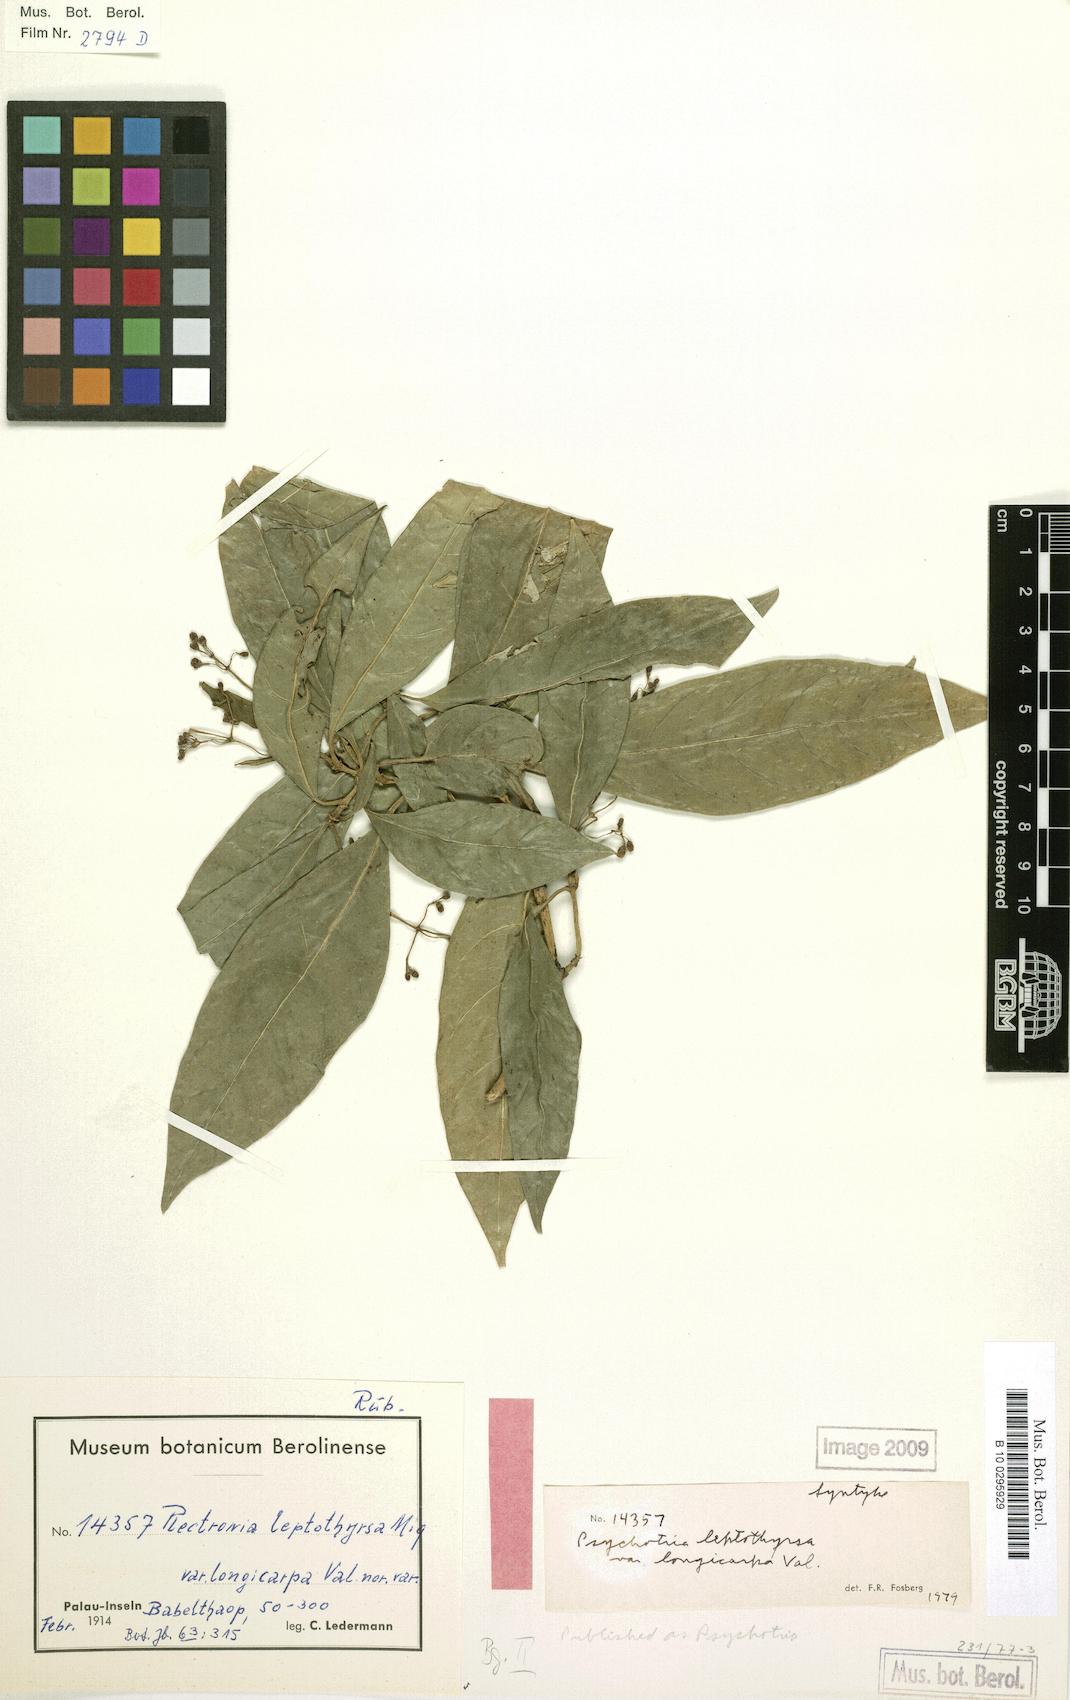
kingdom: Plantae
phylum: Tracheophyta
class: Magnoliopsida
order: Gentianales
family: Rubiaceae
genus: Eumachia
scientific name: Eumachia leptothyrsa
